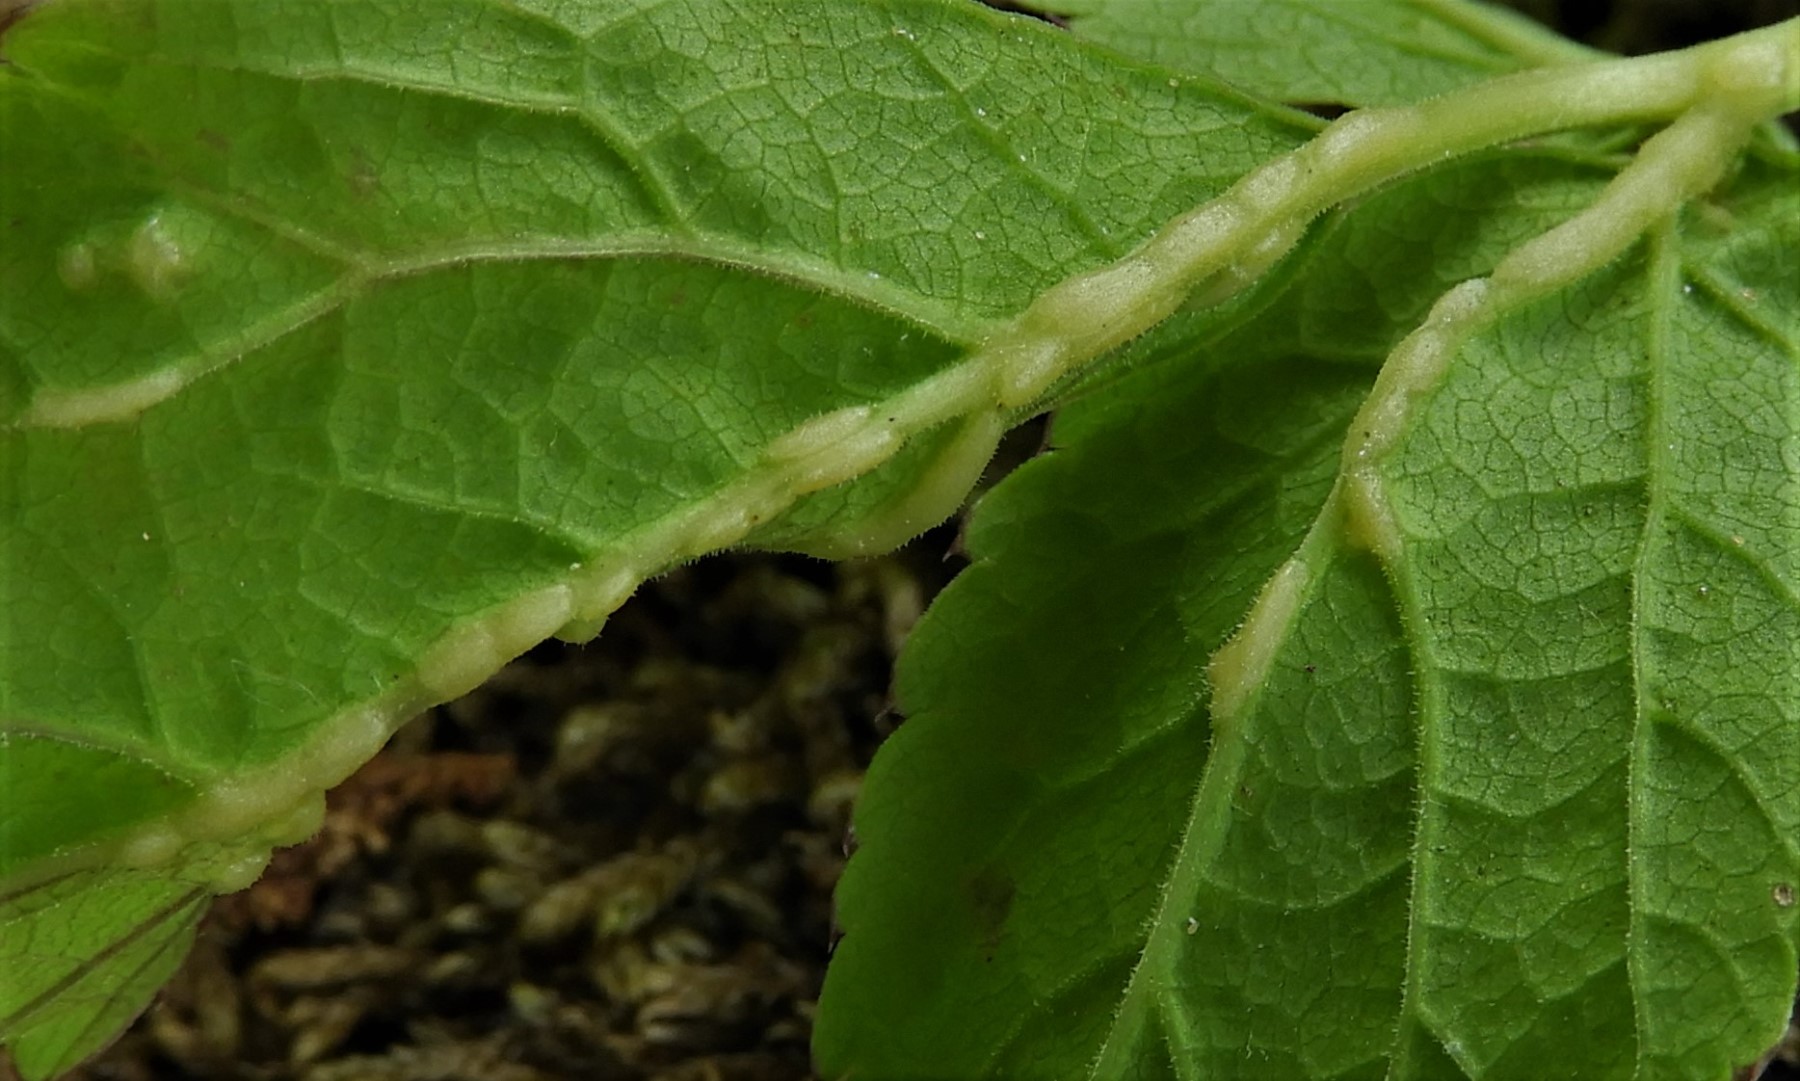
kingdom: Fungi
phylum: Ascomycota
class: Taphrinomycetes
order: Taphrinales
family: Taphrinaceae
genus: Protomyces
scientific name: Protomyces macrosporus
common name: skvalderkål-vablesæk
